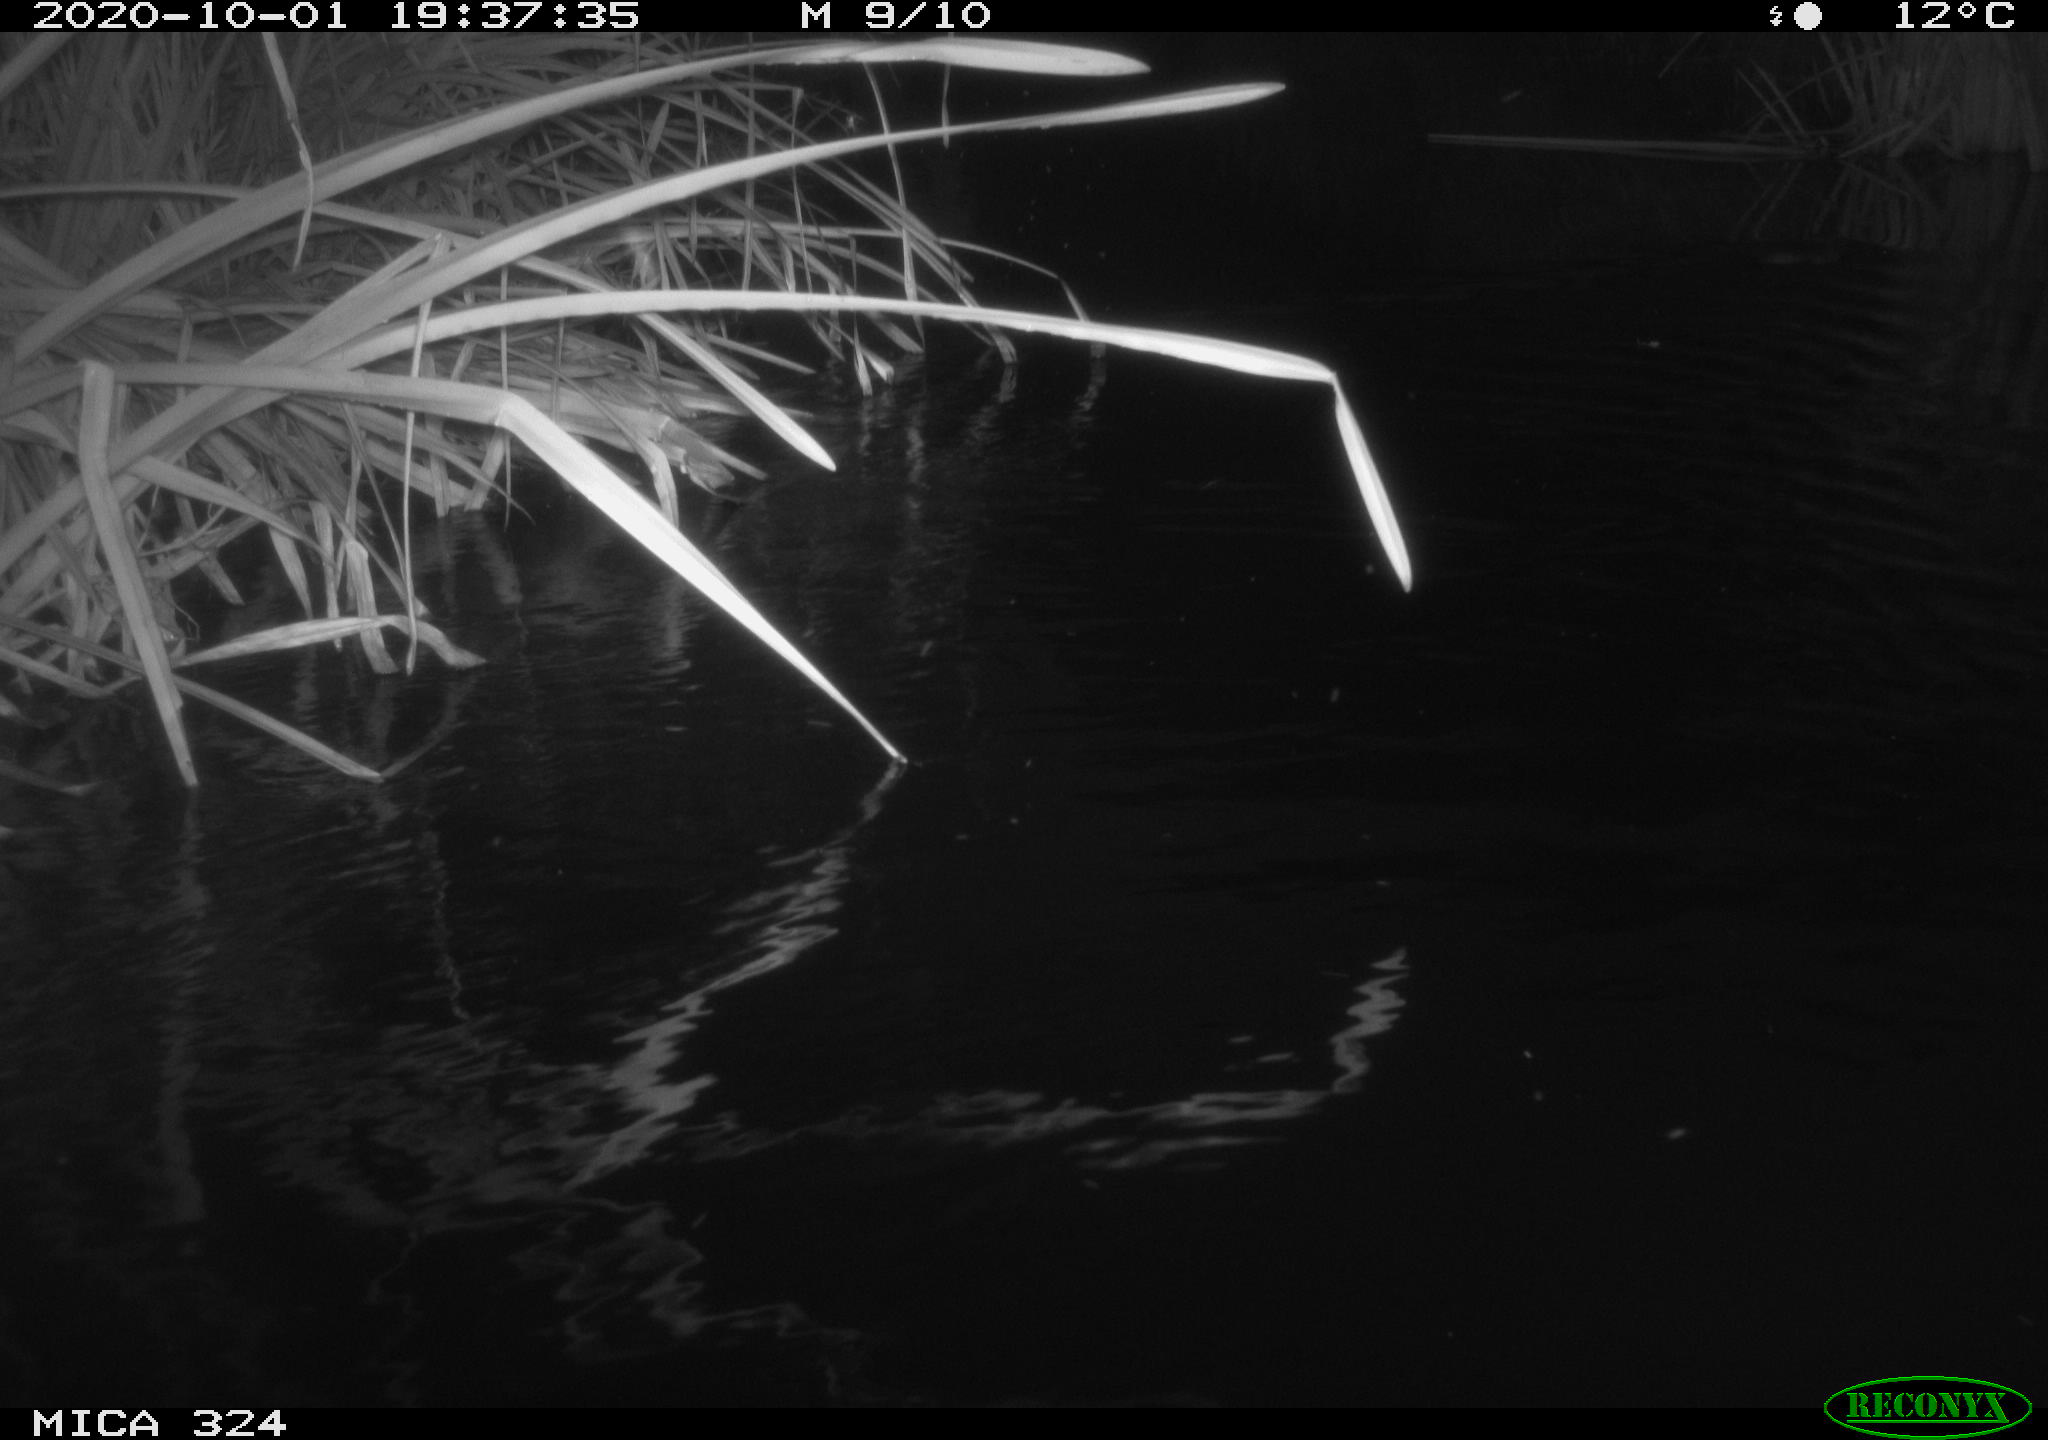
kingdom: Animalia
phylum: Chordata
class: Mammalia
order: Rodentia
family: Cricetidae
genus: Ondatra
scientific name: Ondatra zibethicus
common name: Muskrat
